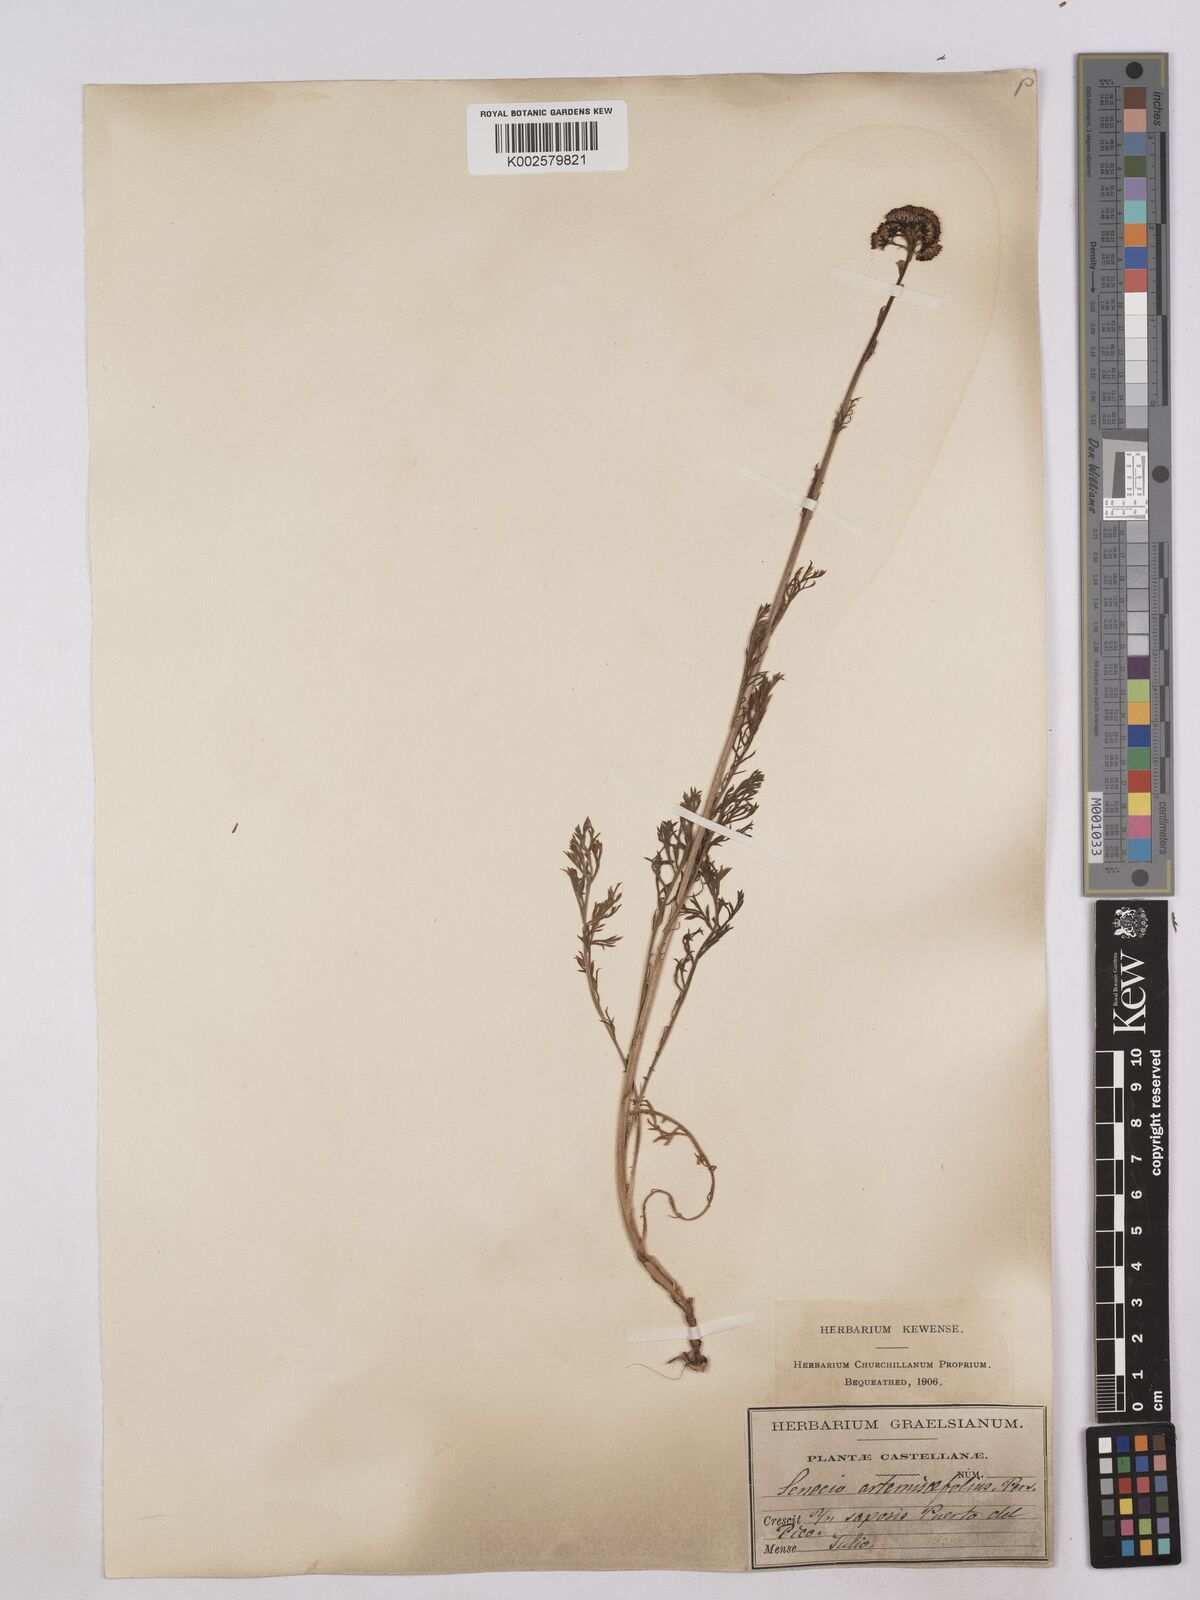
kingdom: Plantae
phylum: Tracheophyta
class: Magnoliopsida
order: Asterales
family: Asteraceae
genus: Jacobaea
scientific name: Jacobaea adonidifolia
